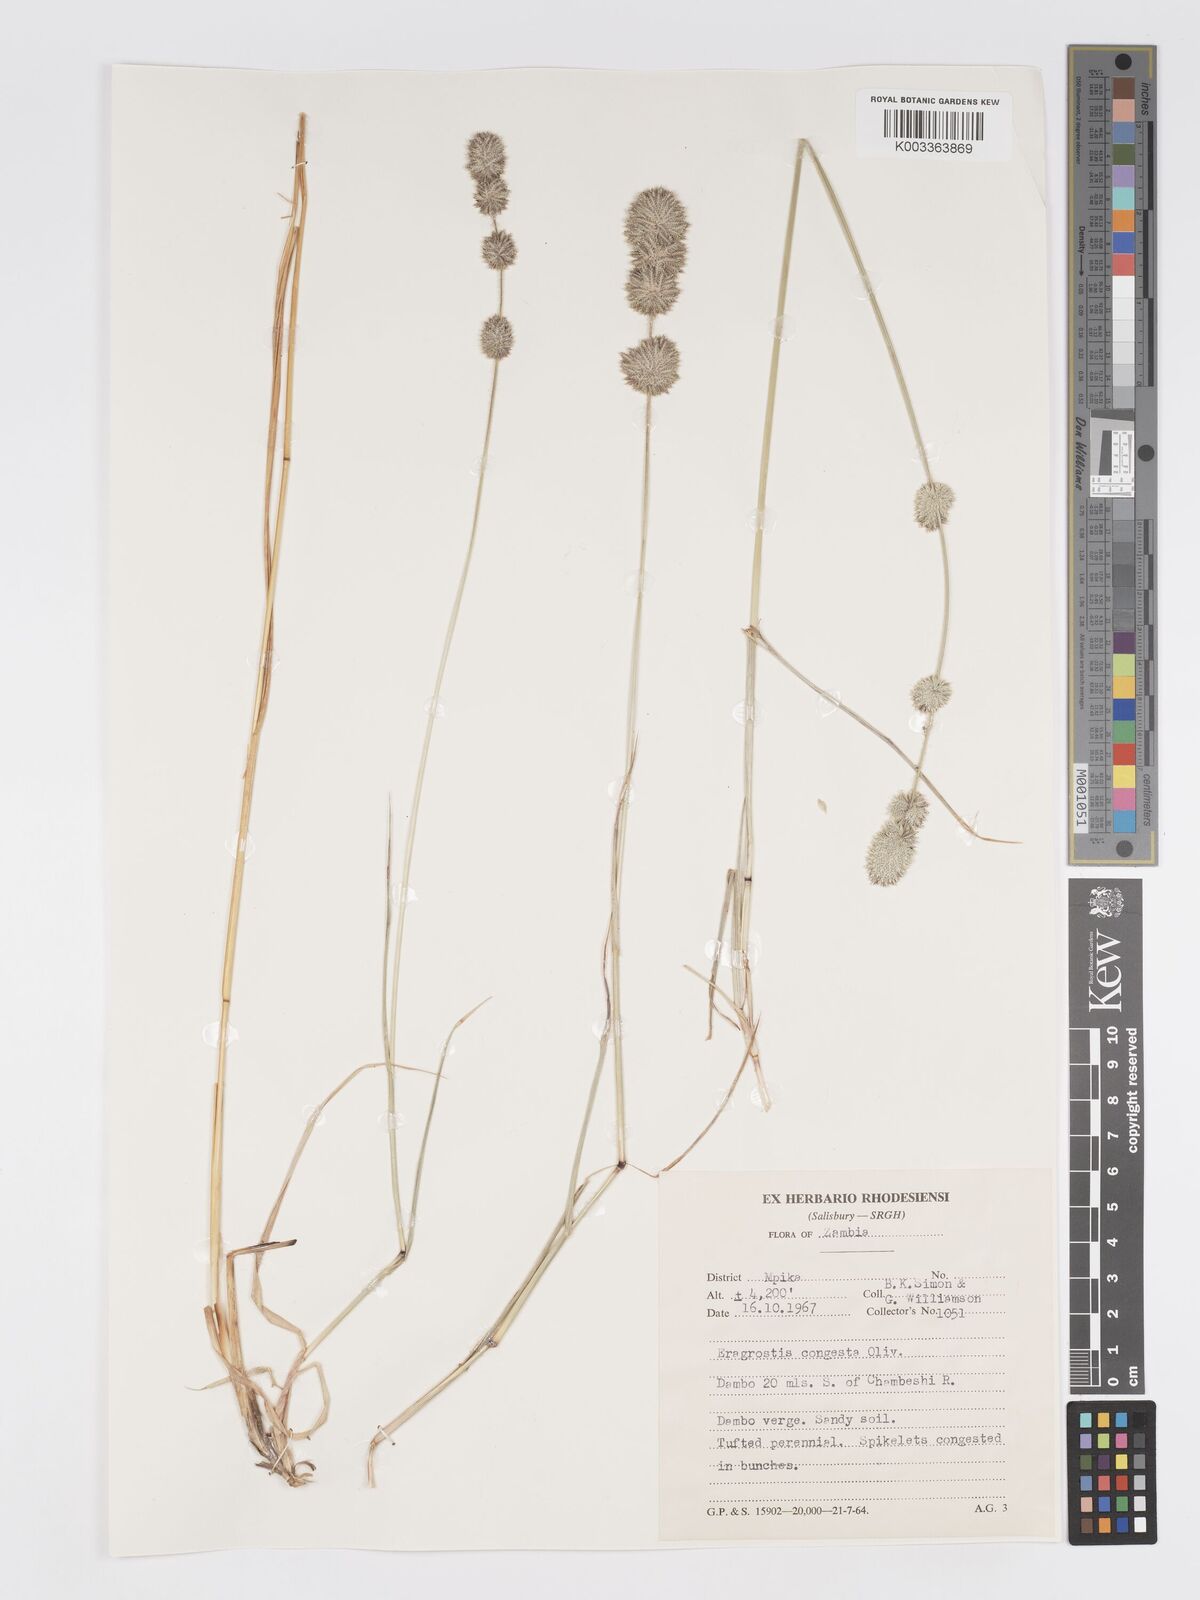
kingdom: Plantae
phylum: Tracheophyta
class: Liliopsida
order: Poales
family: Poaceae
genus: Eragrostis
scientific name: Eragrostis congesta
